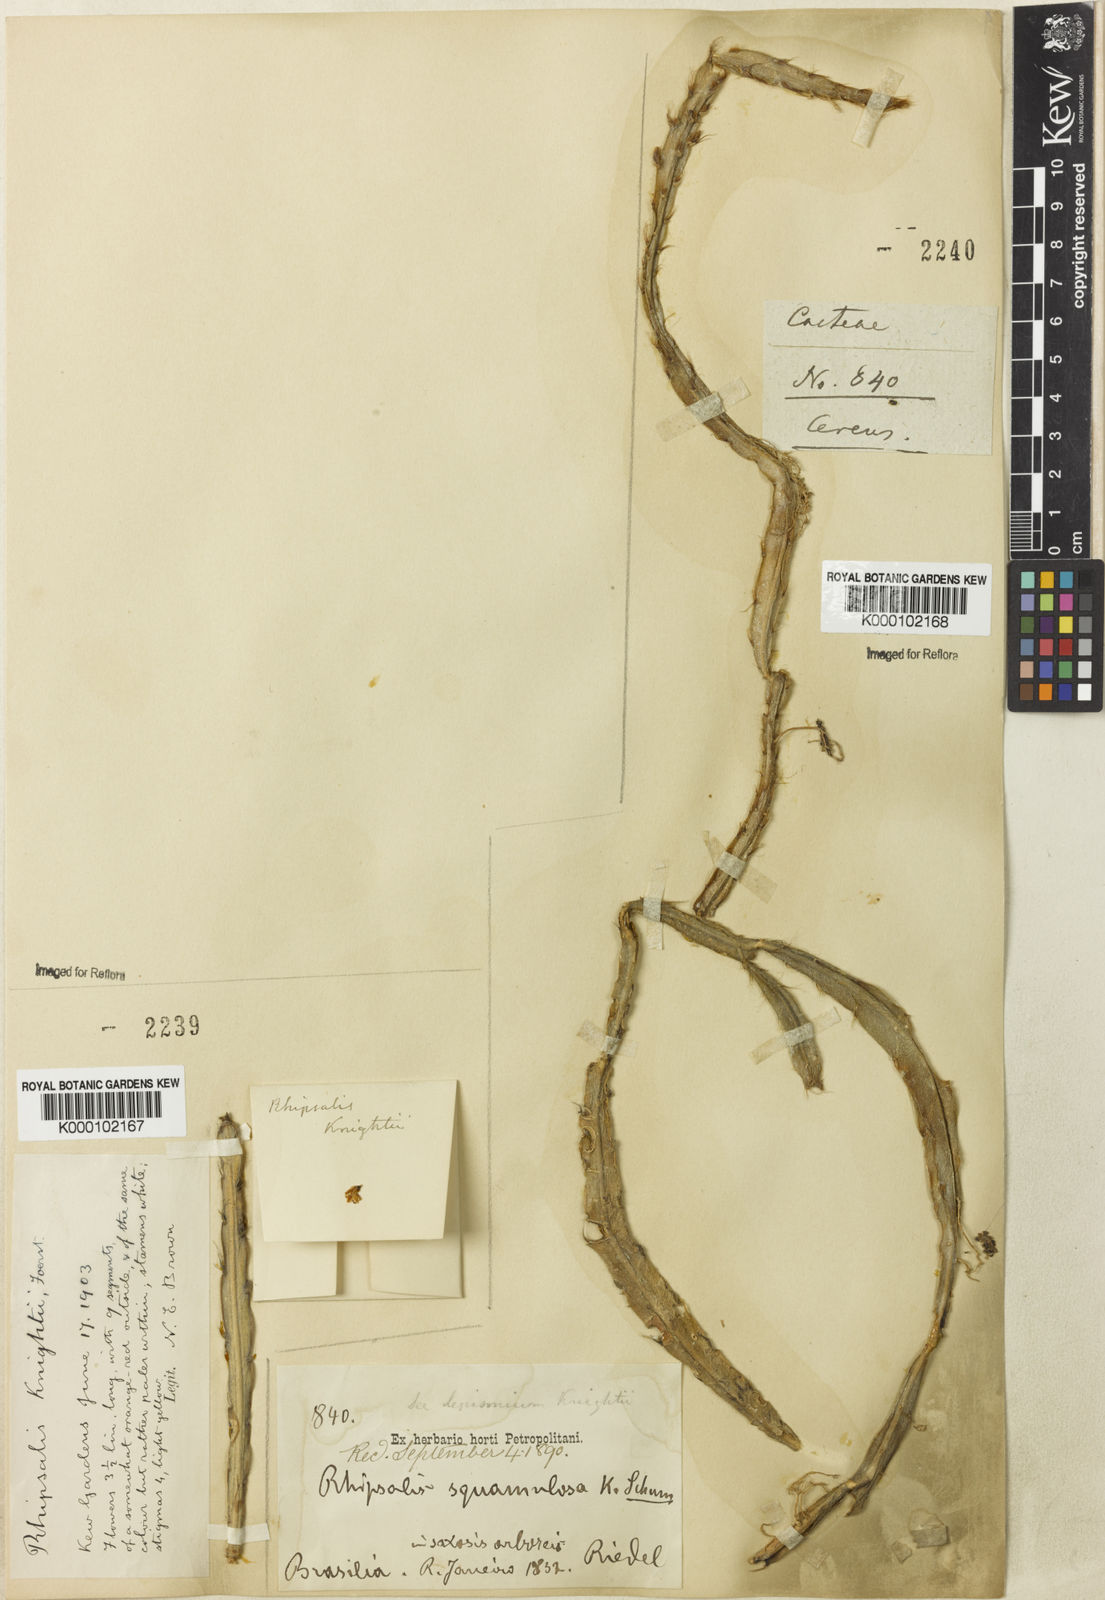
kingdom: Plantae
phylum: Tracheophyta
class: Magnoliopsida
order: Caryophyllales
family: Cactaceae
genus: Lepismium
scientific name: Lepismium cruciforme
